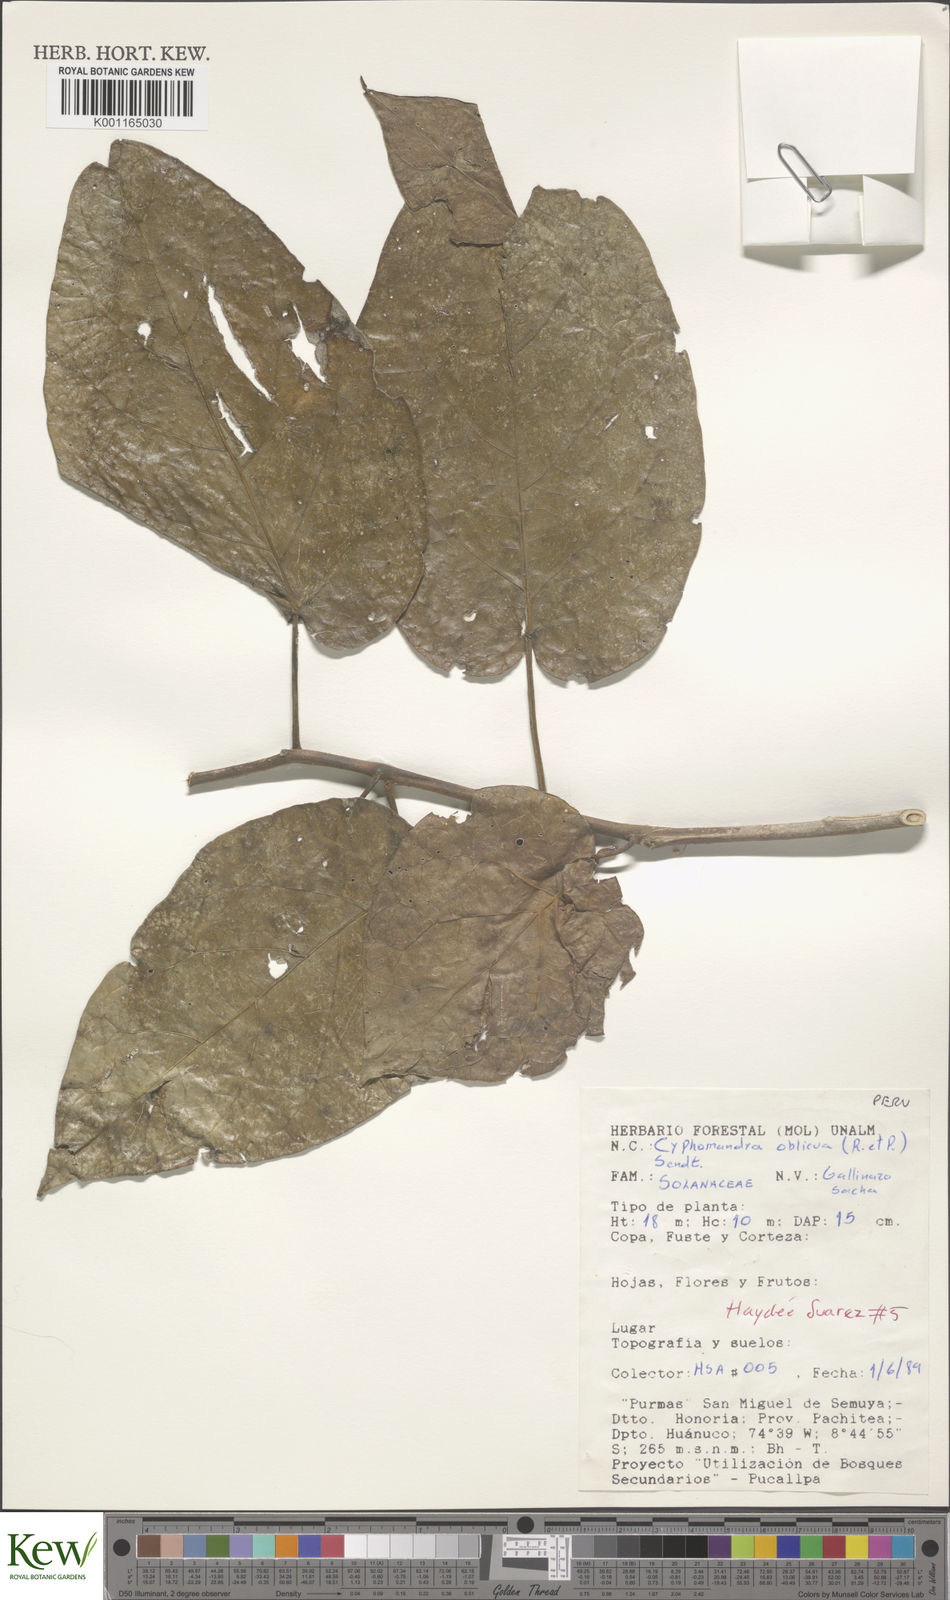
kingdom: Plantae
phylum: Tracheophyta
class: Magnoliopsida
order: Solanales
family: Solanaceae
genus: Solanum
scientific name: Solanum obliquum
